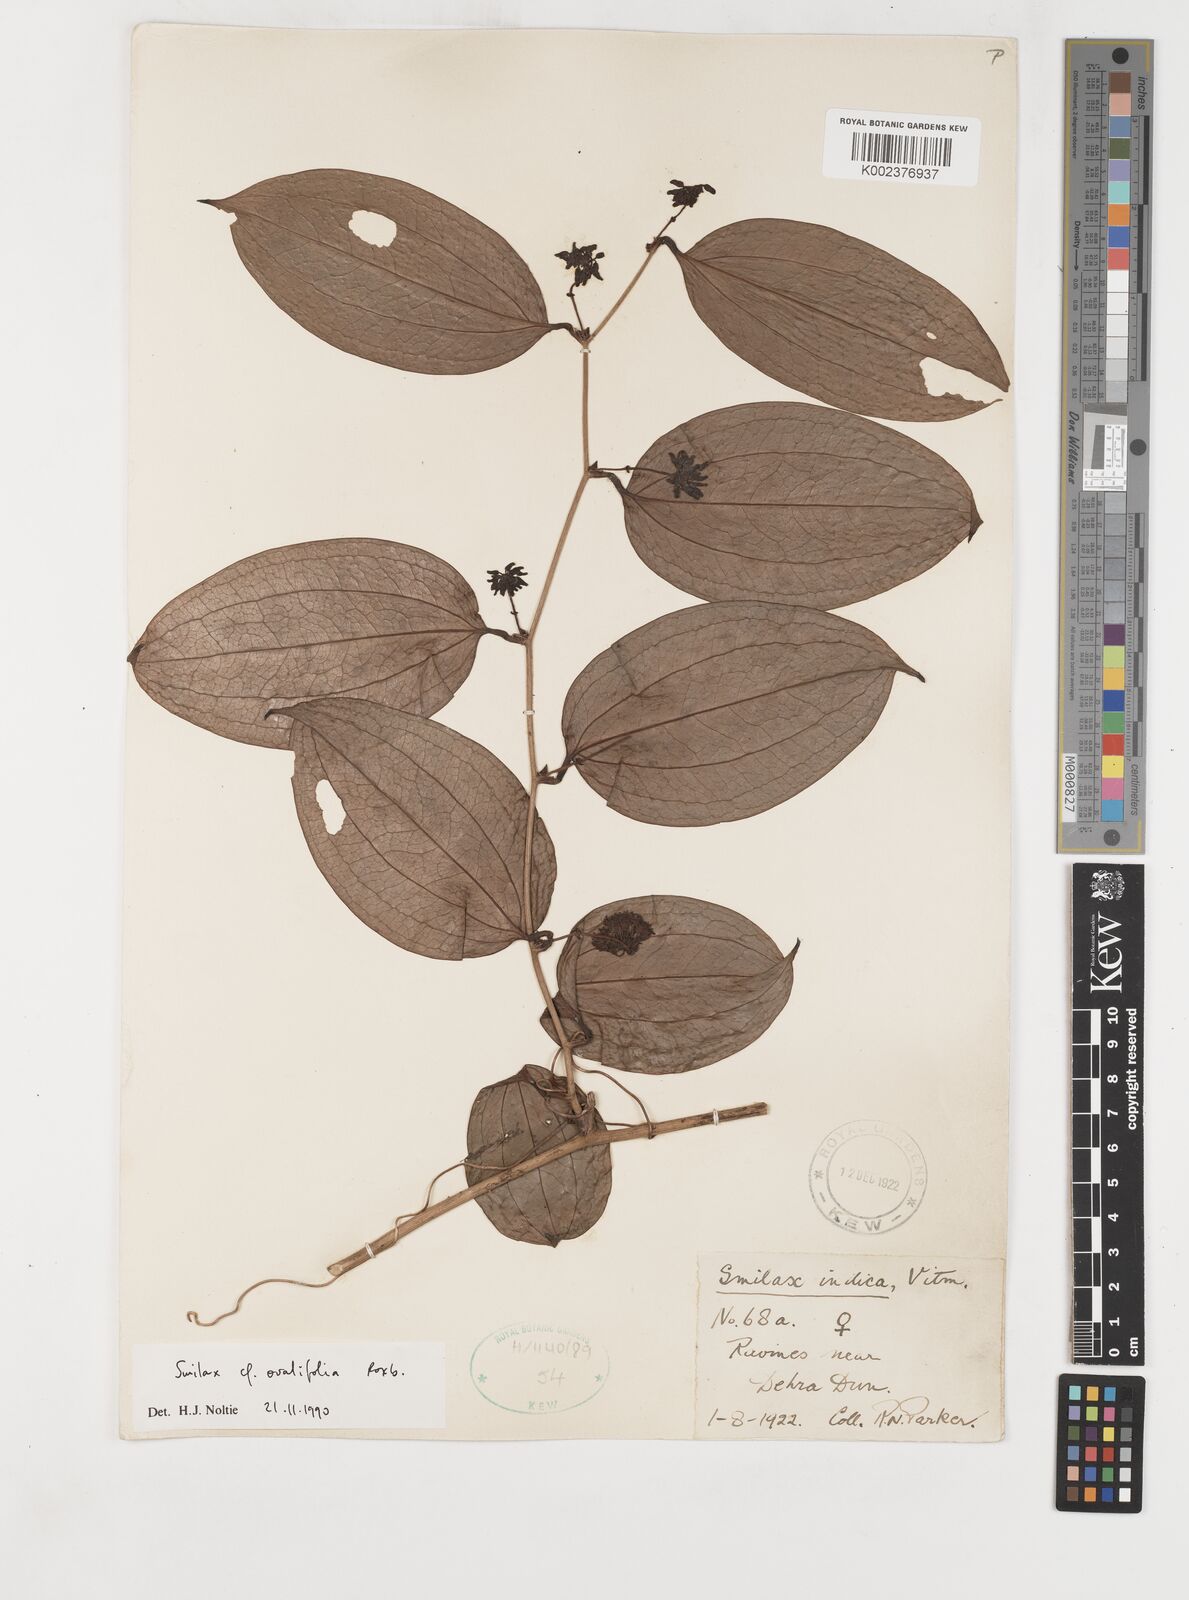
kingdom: Plantae
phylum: Tracheophyta
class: Liliopsida
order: Liliales
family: Smilacaceae
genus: Smilax
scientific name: Smilax ovalifolia
